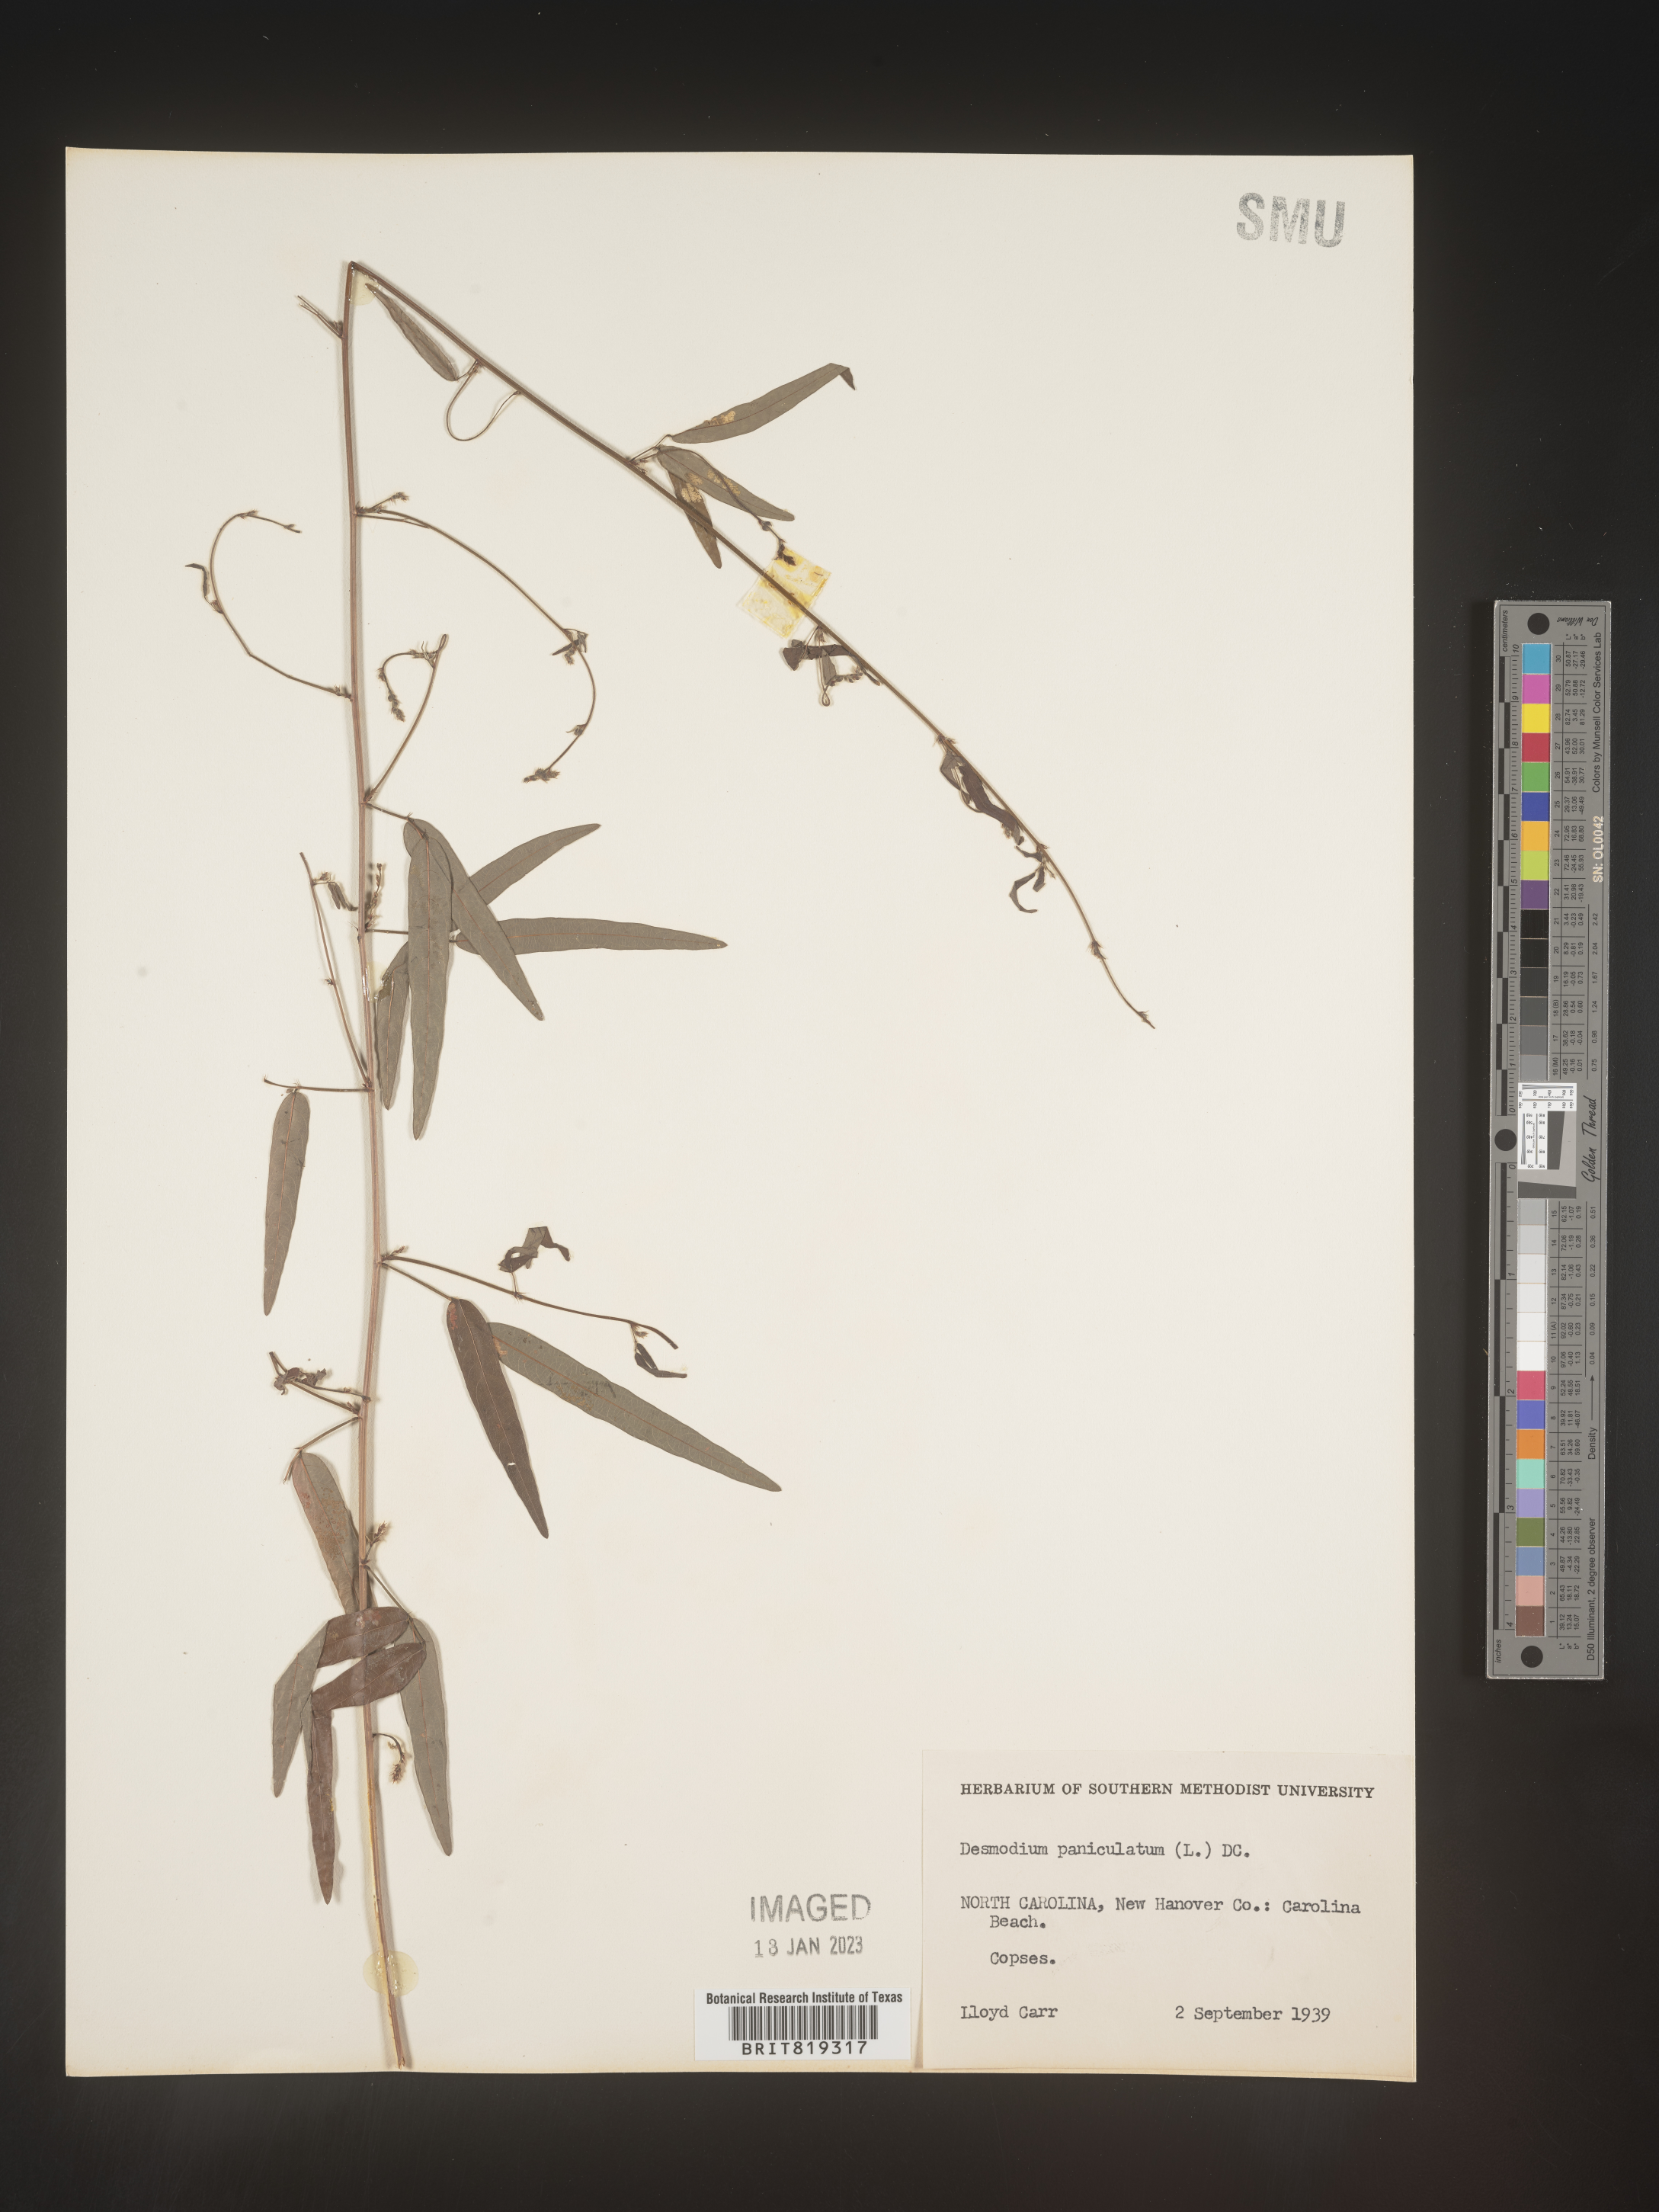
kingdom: Plantae
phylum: Tracheophyta
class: Magnoliopsida
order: Fabales
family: Fabaceae
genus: Desmodium
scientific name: Desmodium paniculatum
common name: Panicled tick-clover
